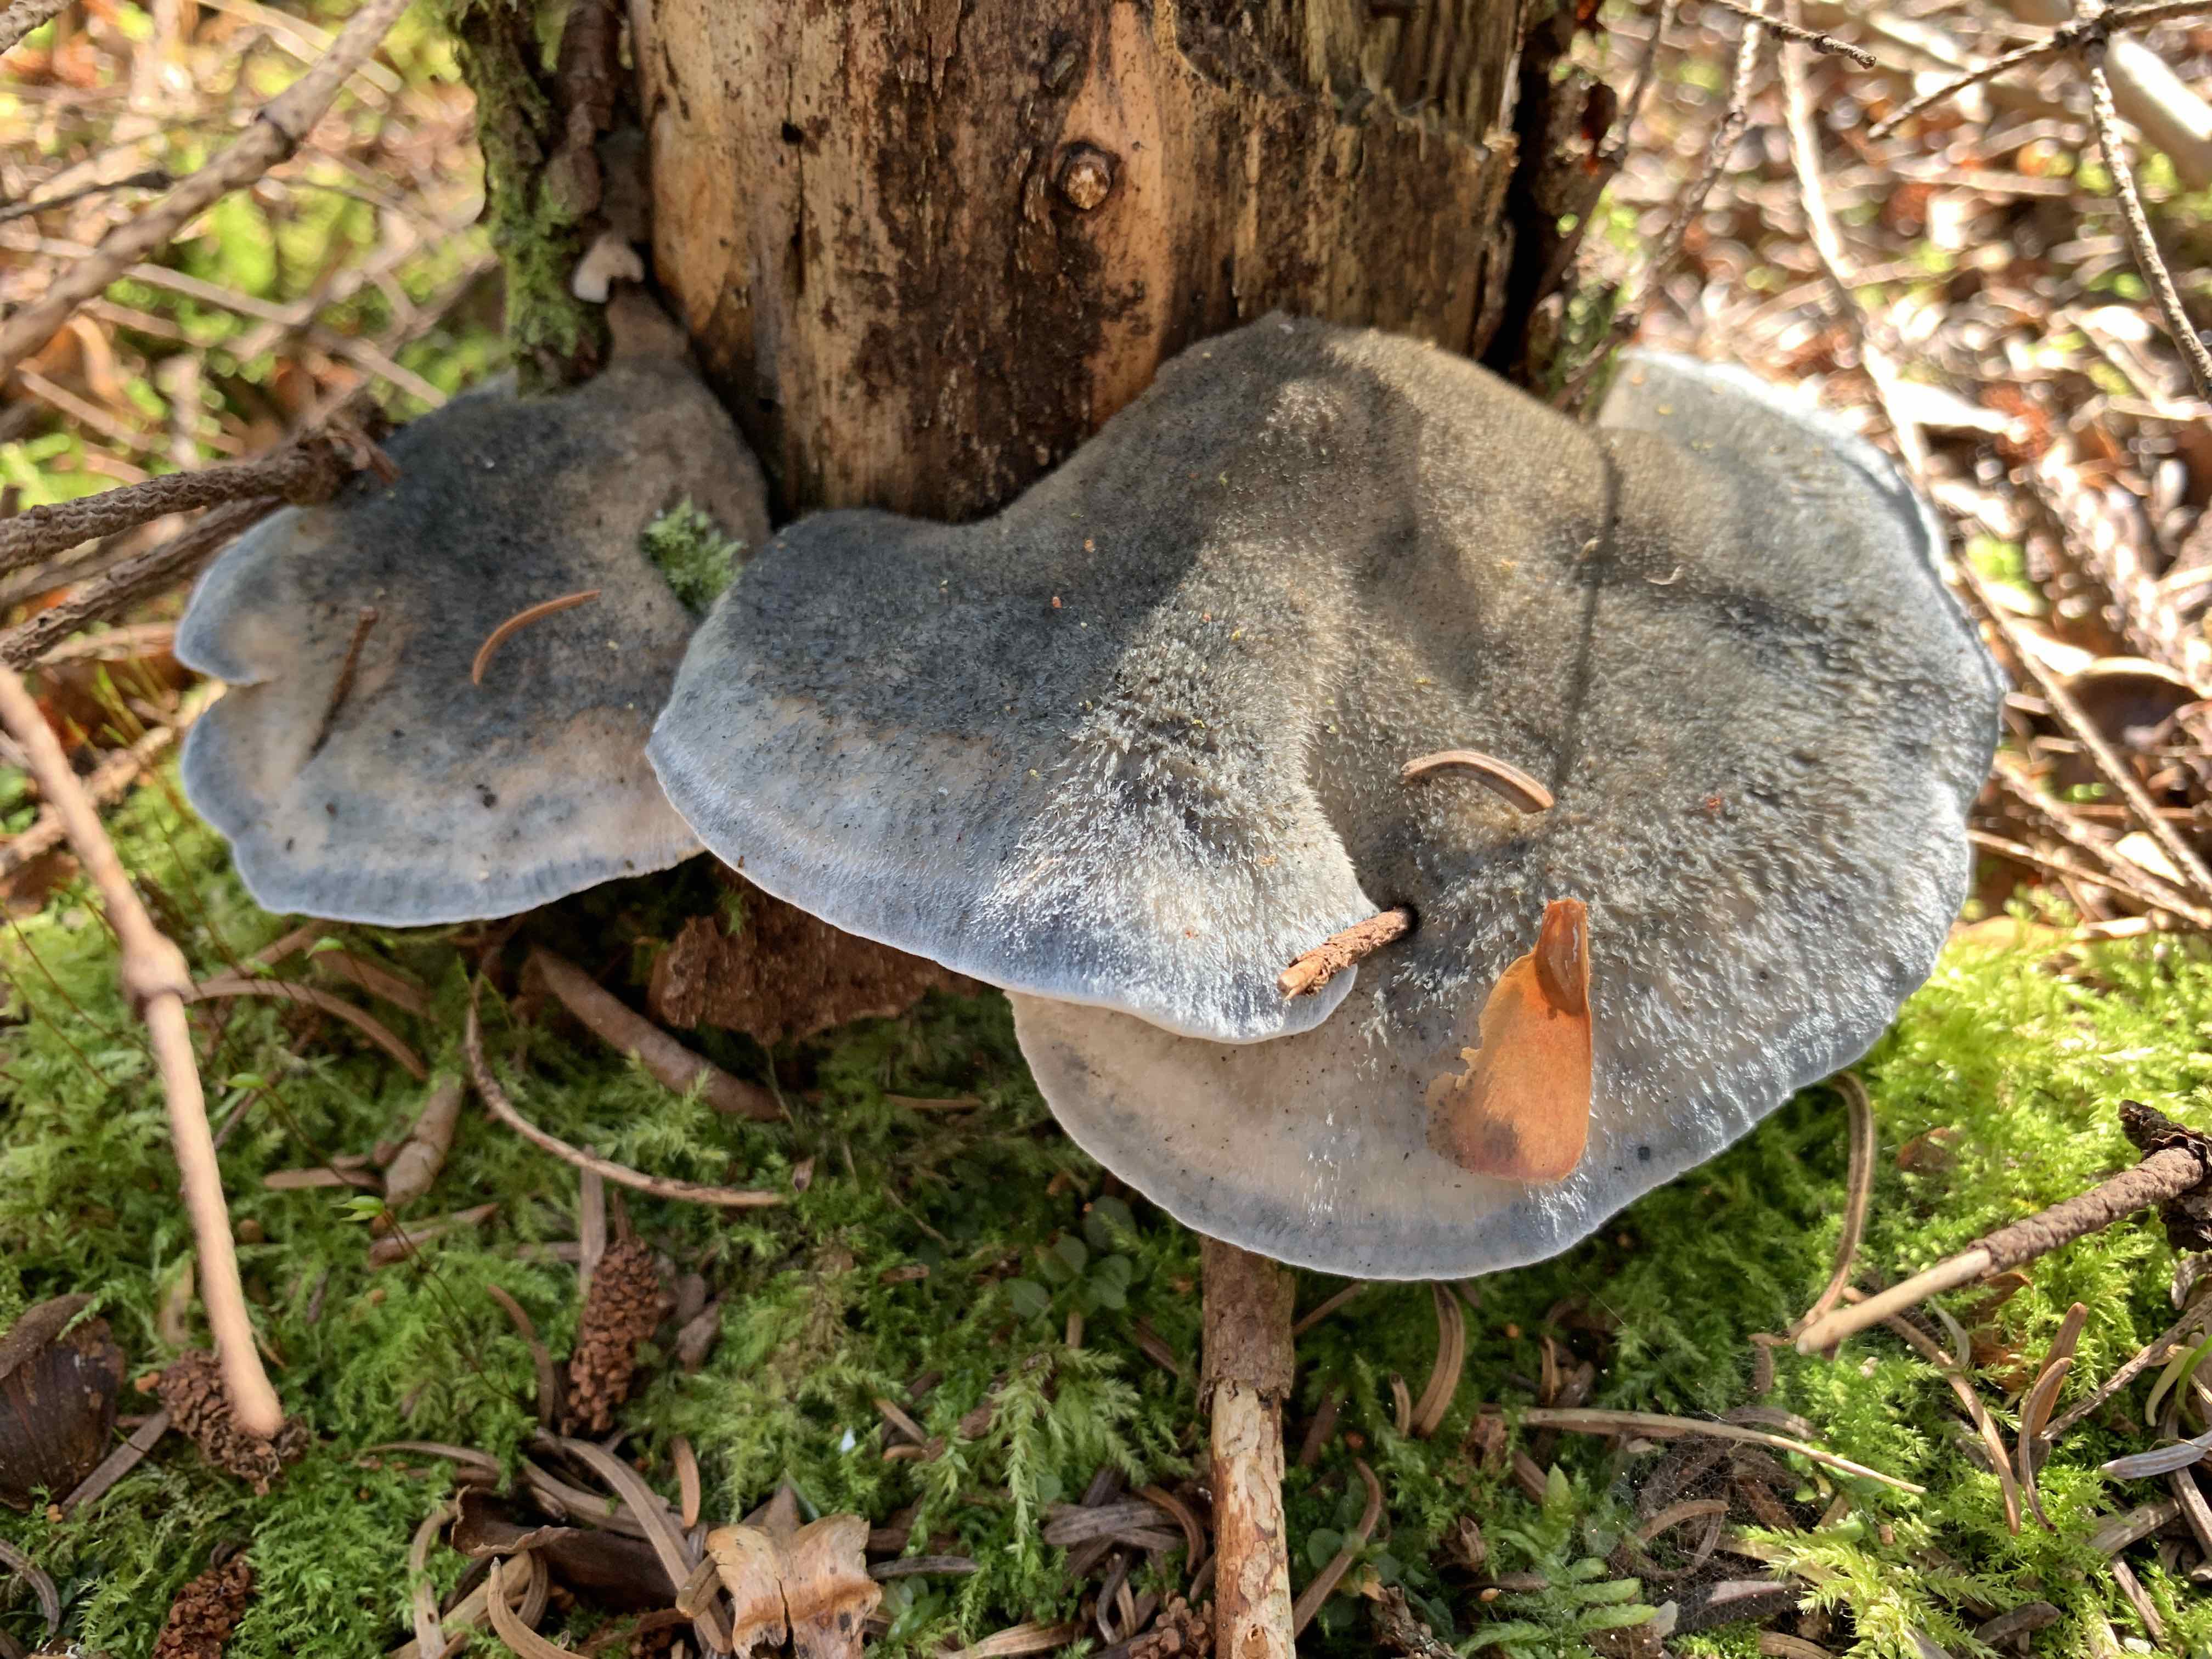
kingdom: Fungi
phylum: Basidiomycota
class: Agaricomycetes
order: Polyporales
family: Polyporaceae
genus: Cyanosporus
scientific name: Cyanosporus caesius
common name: blålig kødporesvamp
